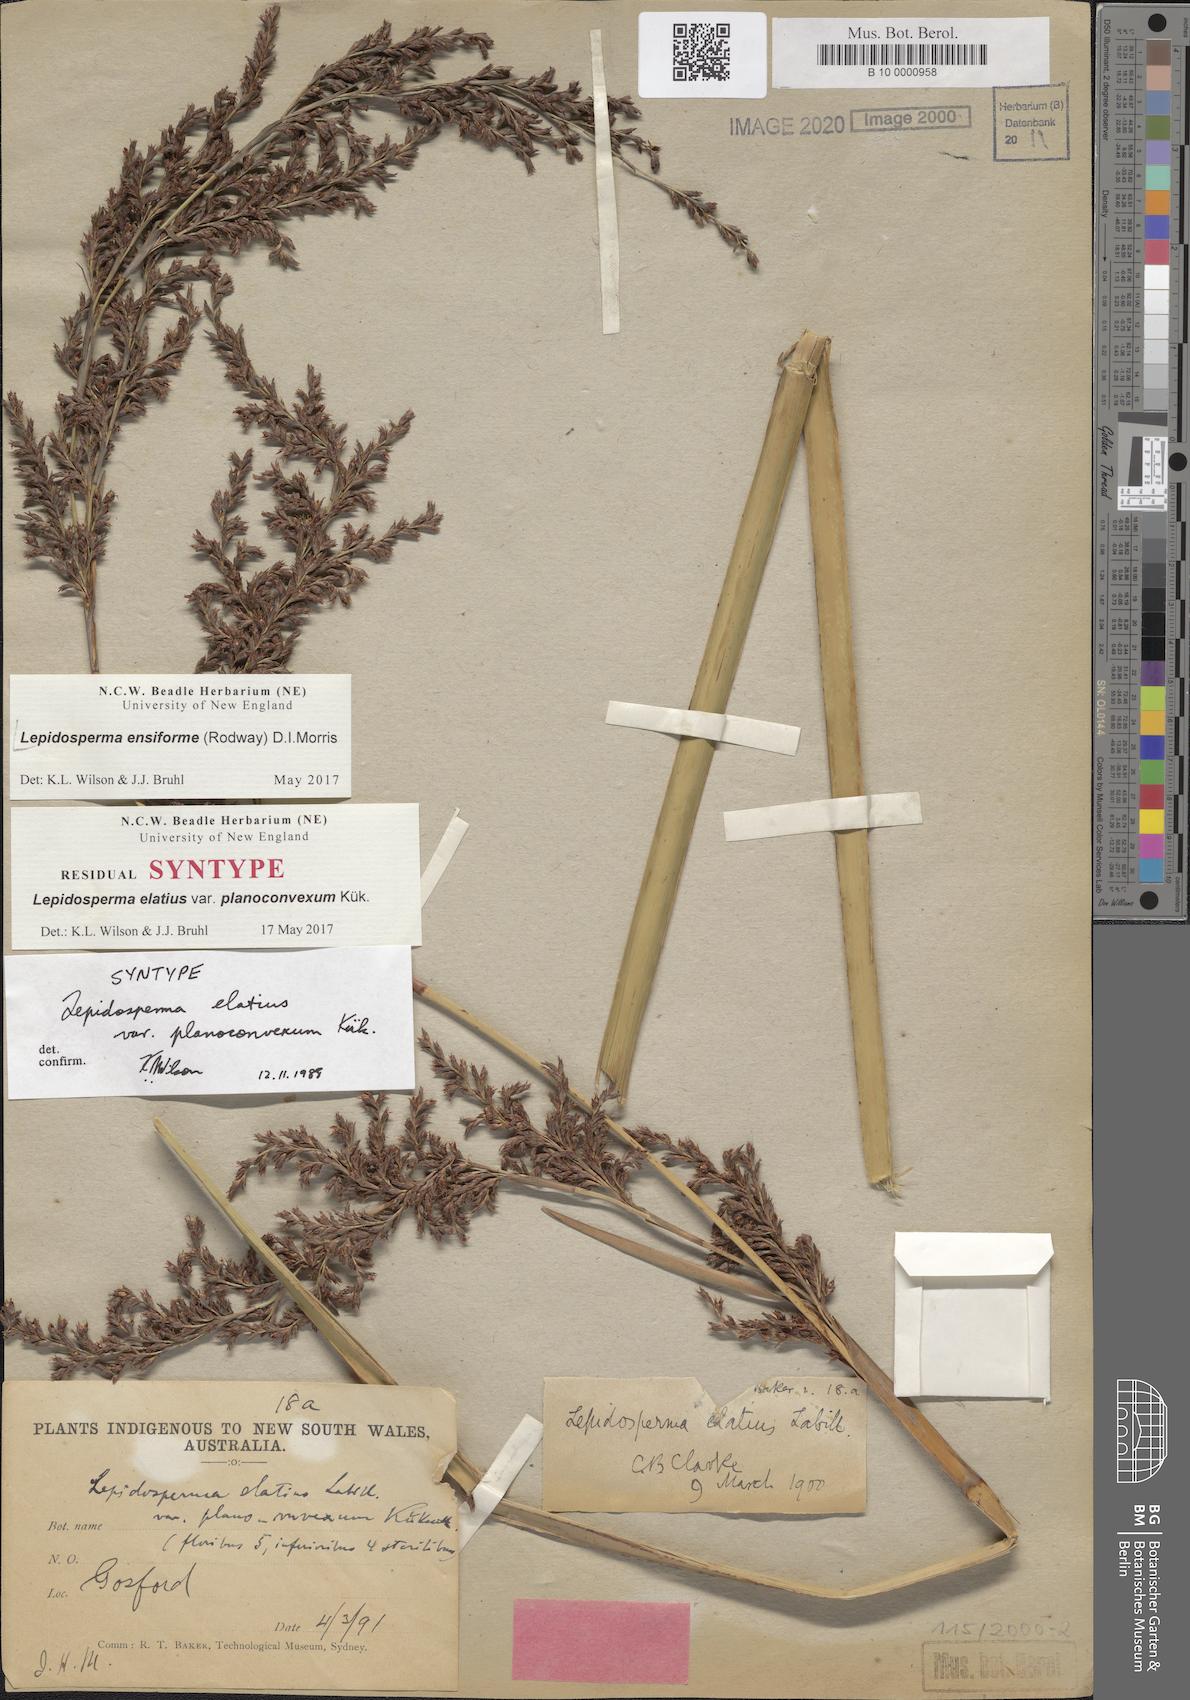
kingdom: Plantae
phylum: Tracheophyta
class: Liliopsida
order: Poales
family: Cyperaceae
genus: Lepidosperma
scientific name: Lepidosperma ensiforme
